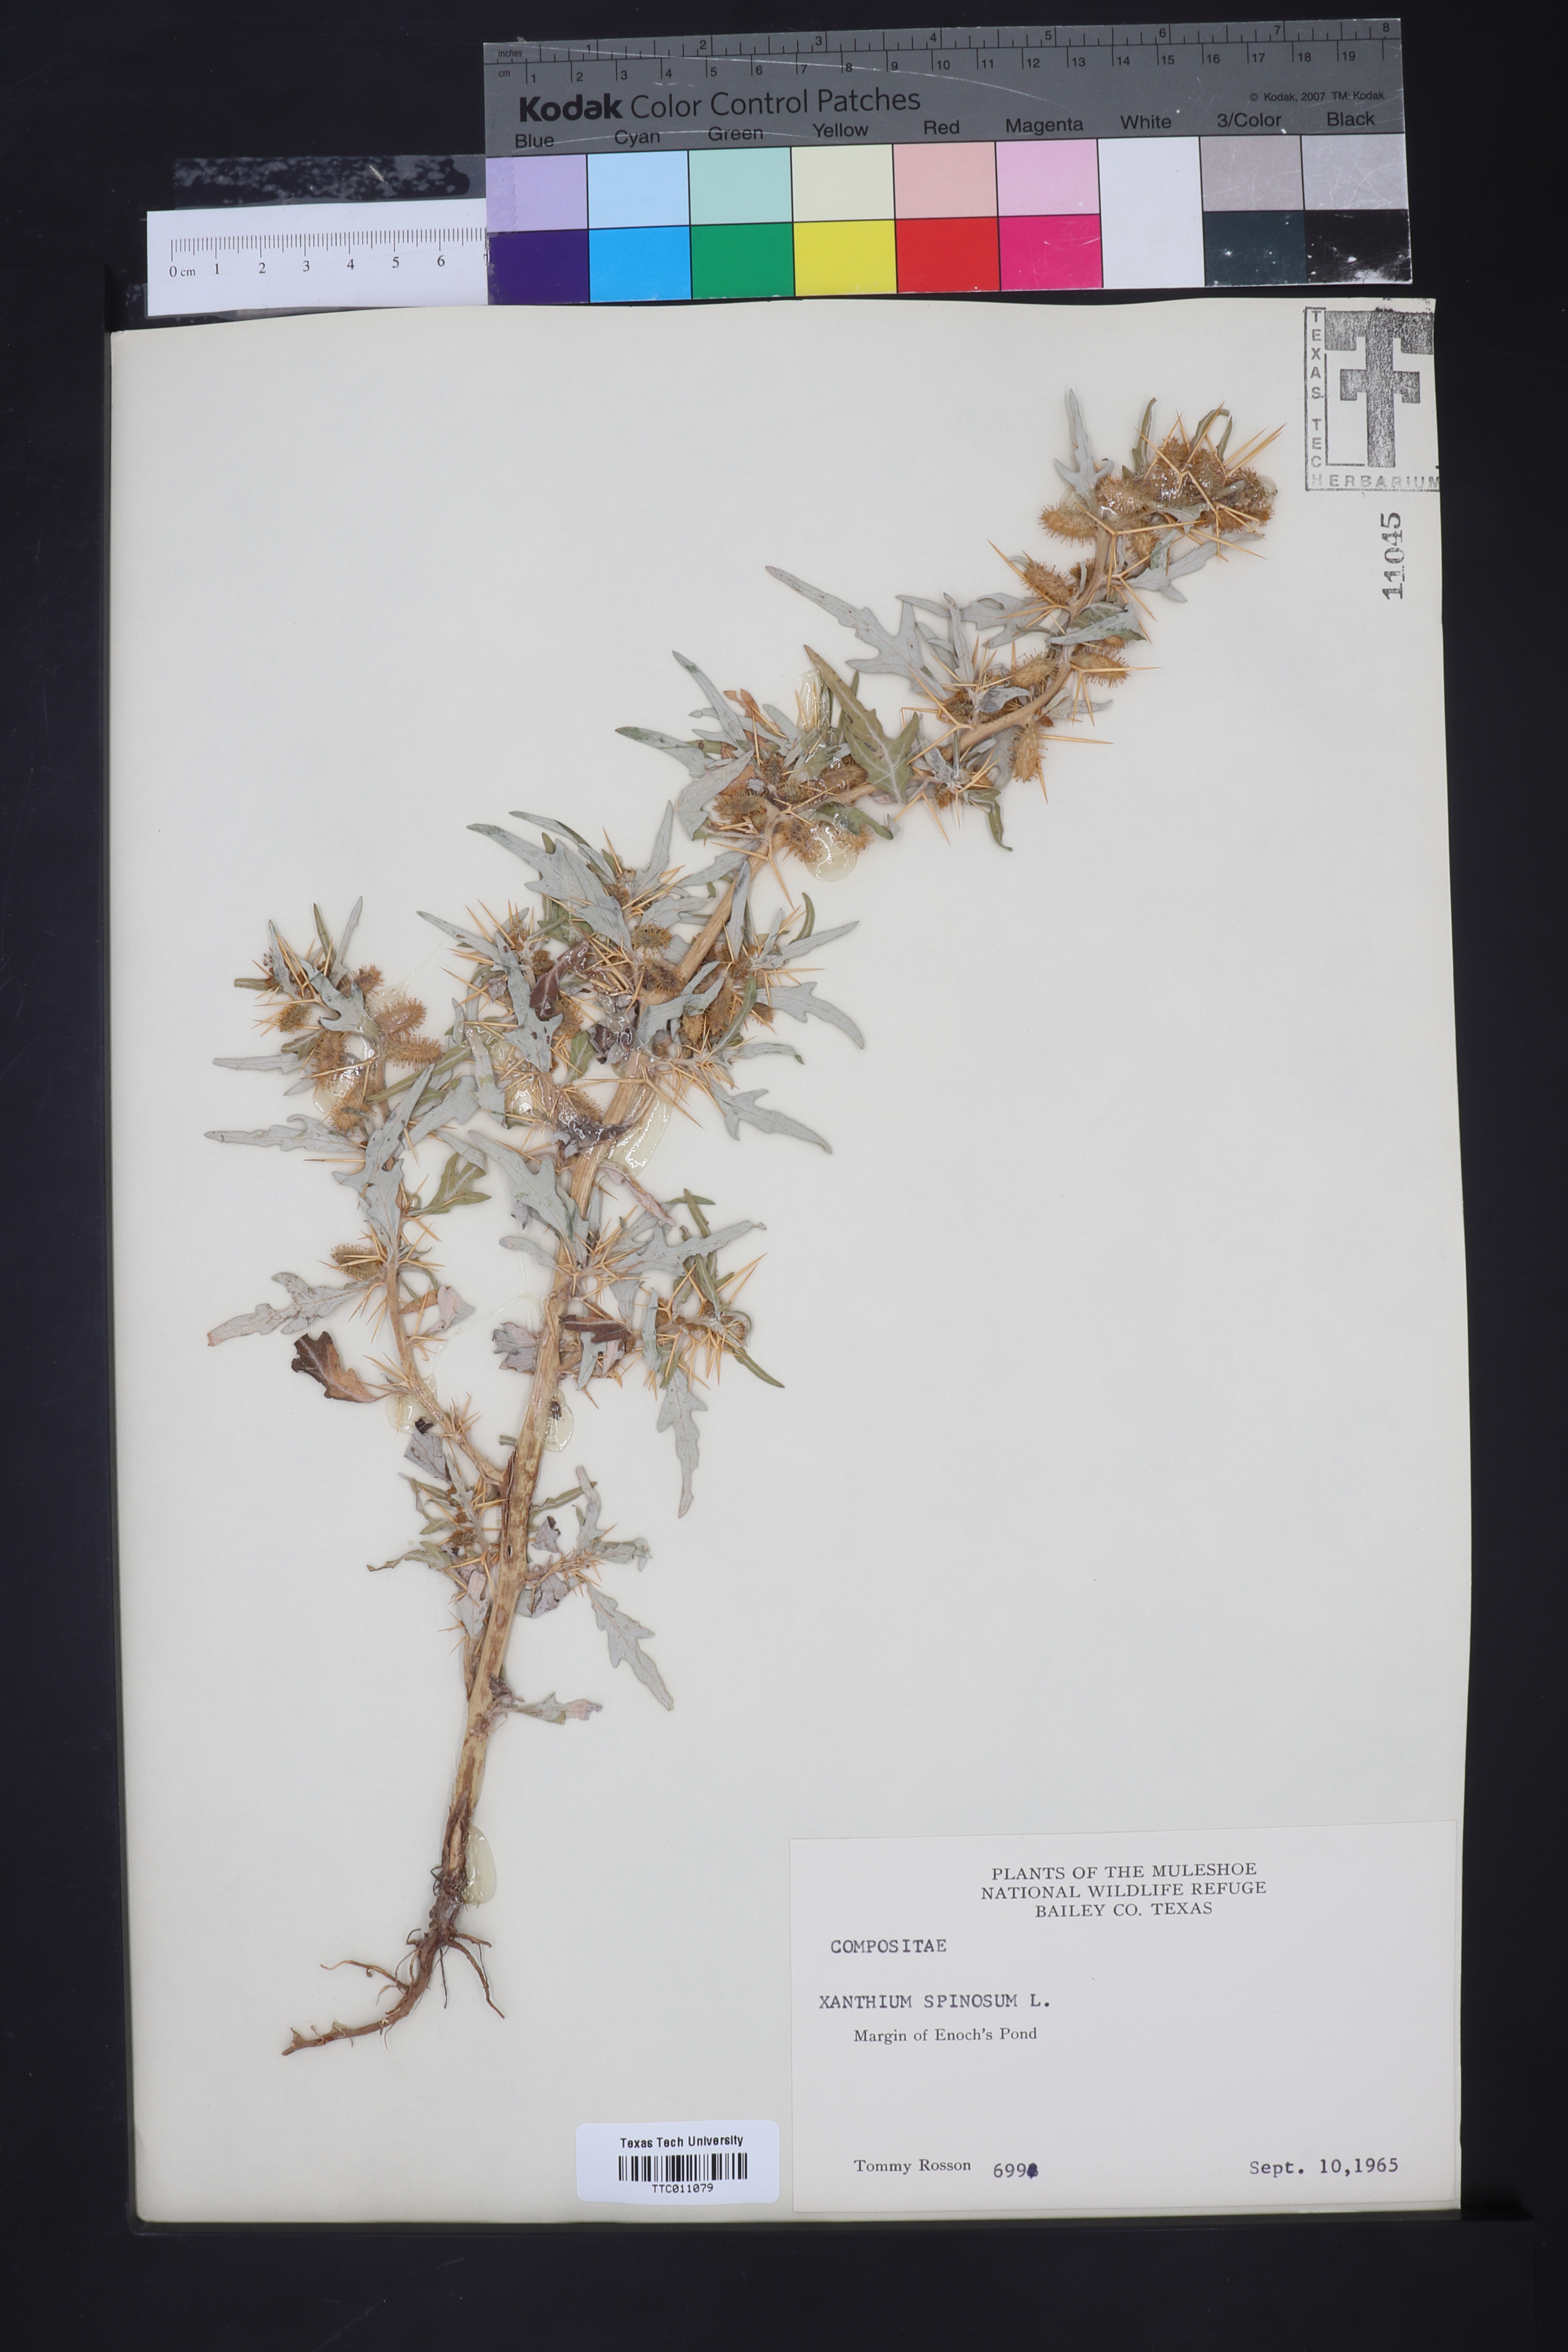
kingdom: Plantae
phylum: Tracheophyta
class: Magnoliopsida
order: Asterales
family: Asteraceae
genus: Xanthium
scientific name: Xanthium spinosum
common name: Spiny cocklebur
